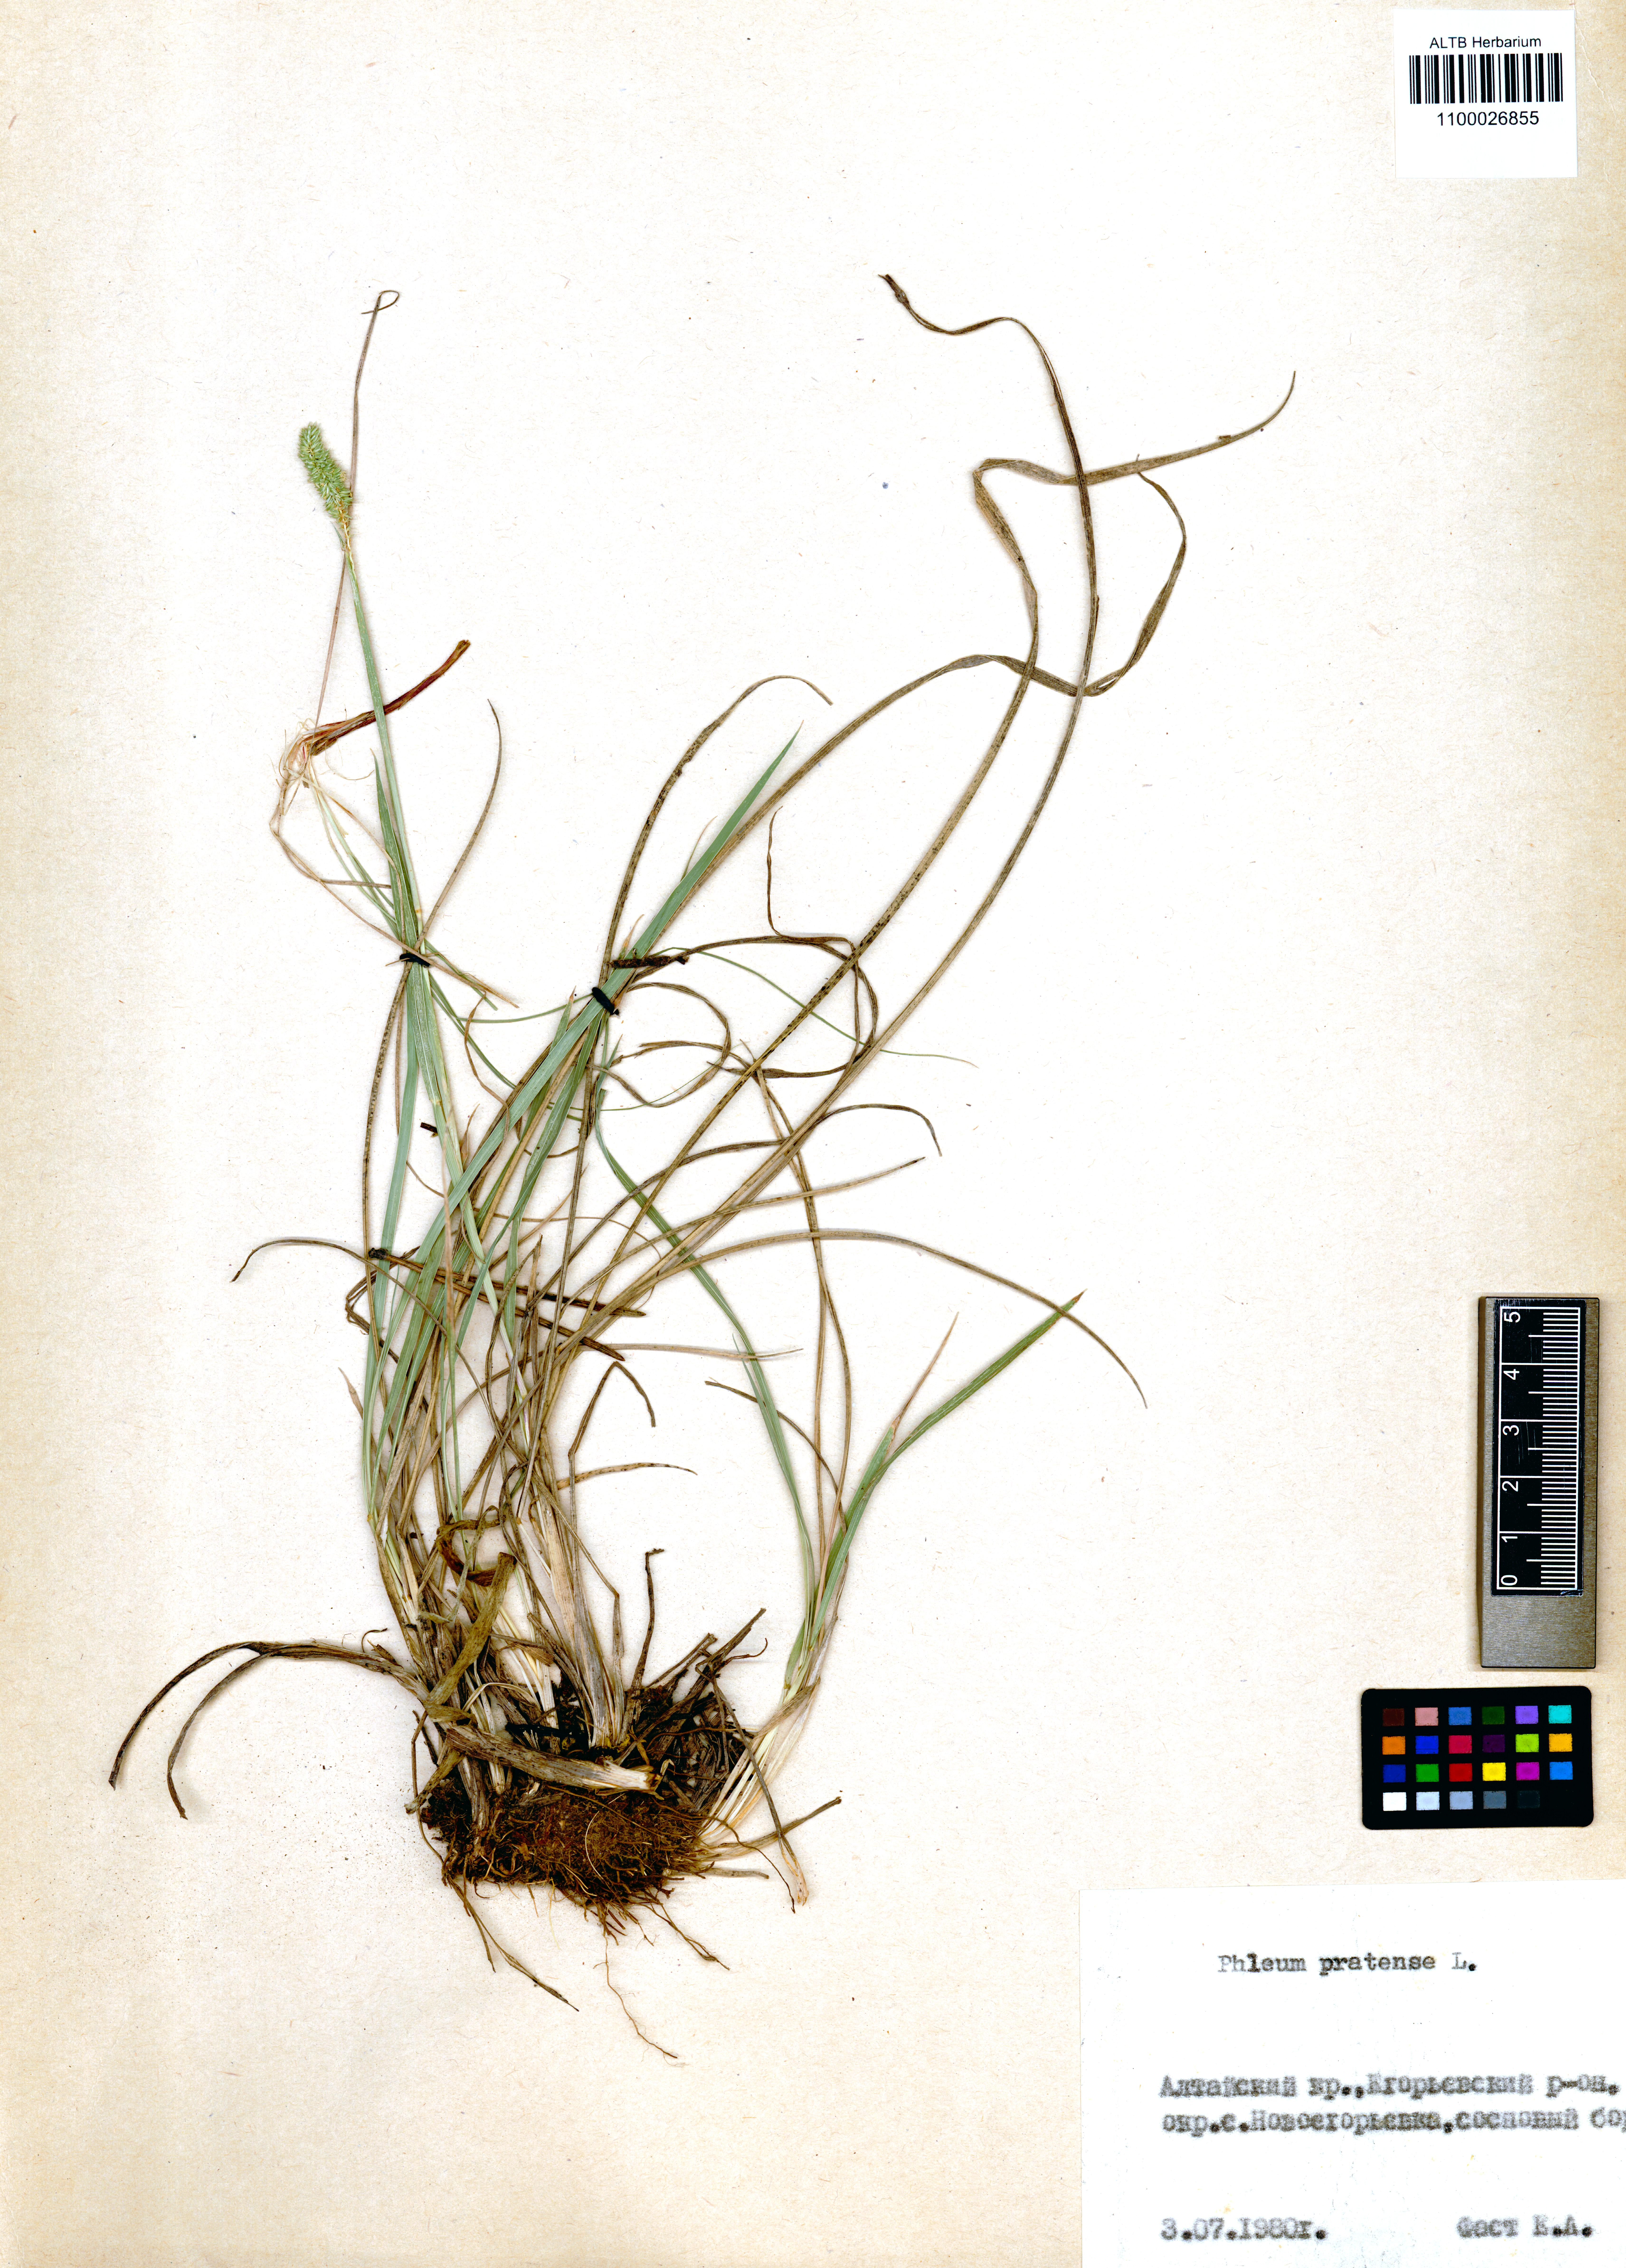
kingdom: Plantae
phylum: Tracheophyta
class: Liliopsida
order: Poales
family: Poaceae
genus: Phleum
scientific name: Phleum pratense
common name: Timothy grass
